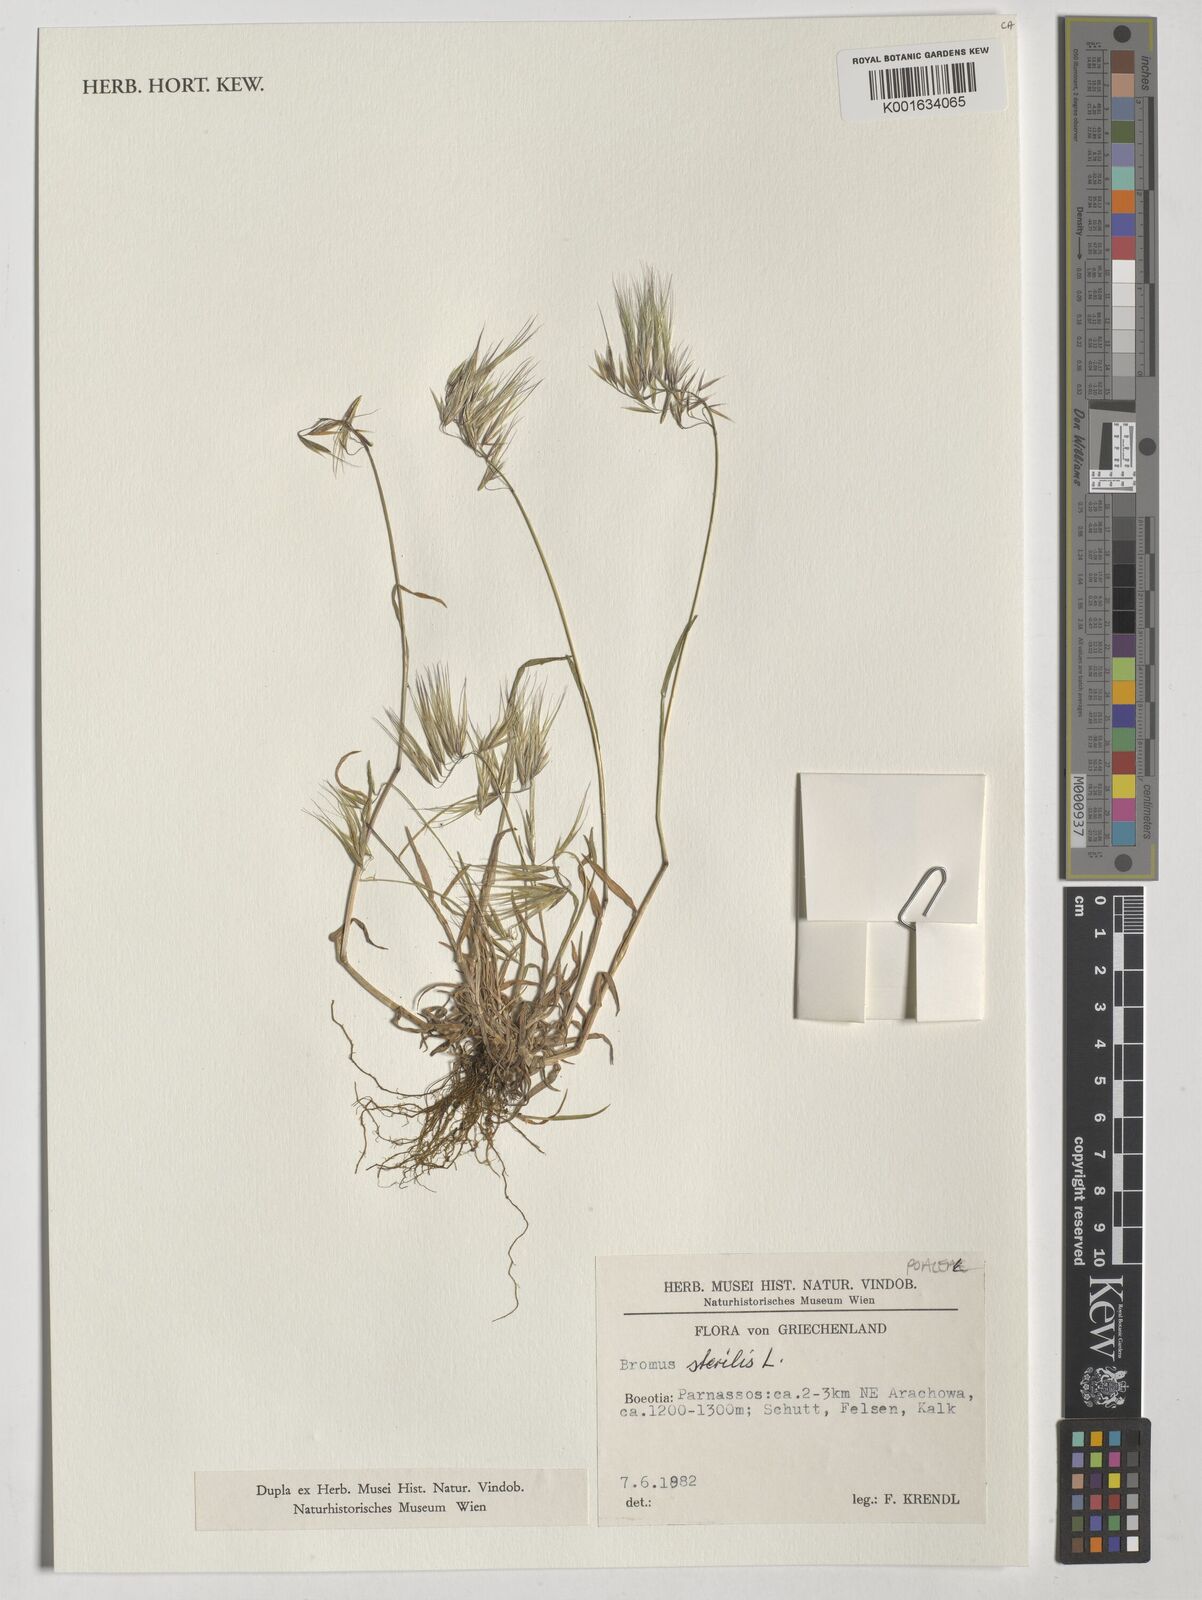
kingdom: Plantae
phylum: Tracheophyta
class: Liliopsida
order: Poales
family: Poaceae
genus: Bromus
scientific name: Bromus sterilis
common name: Poverty brome
